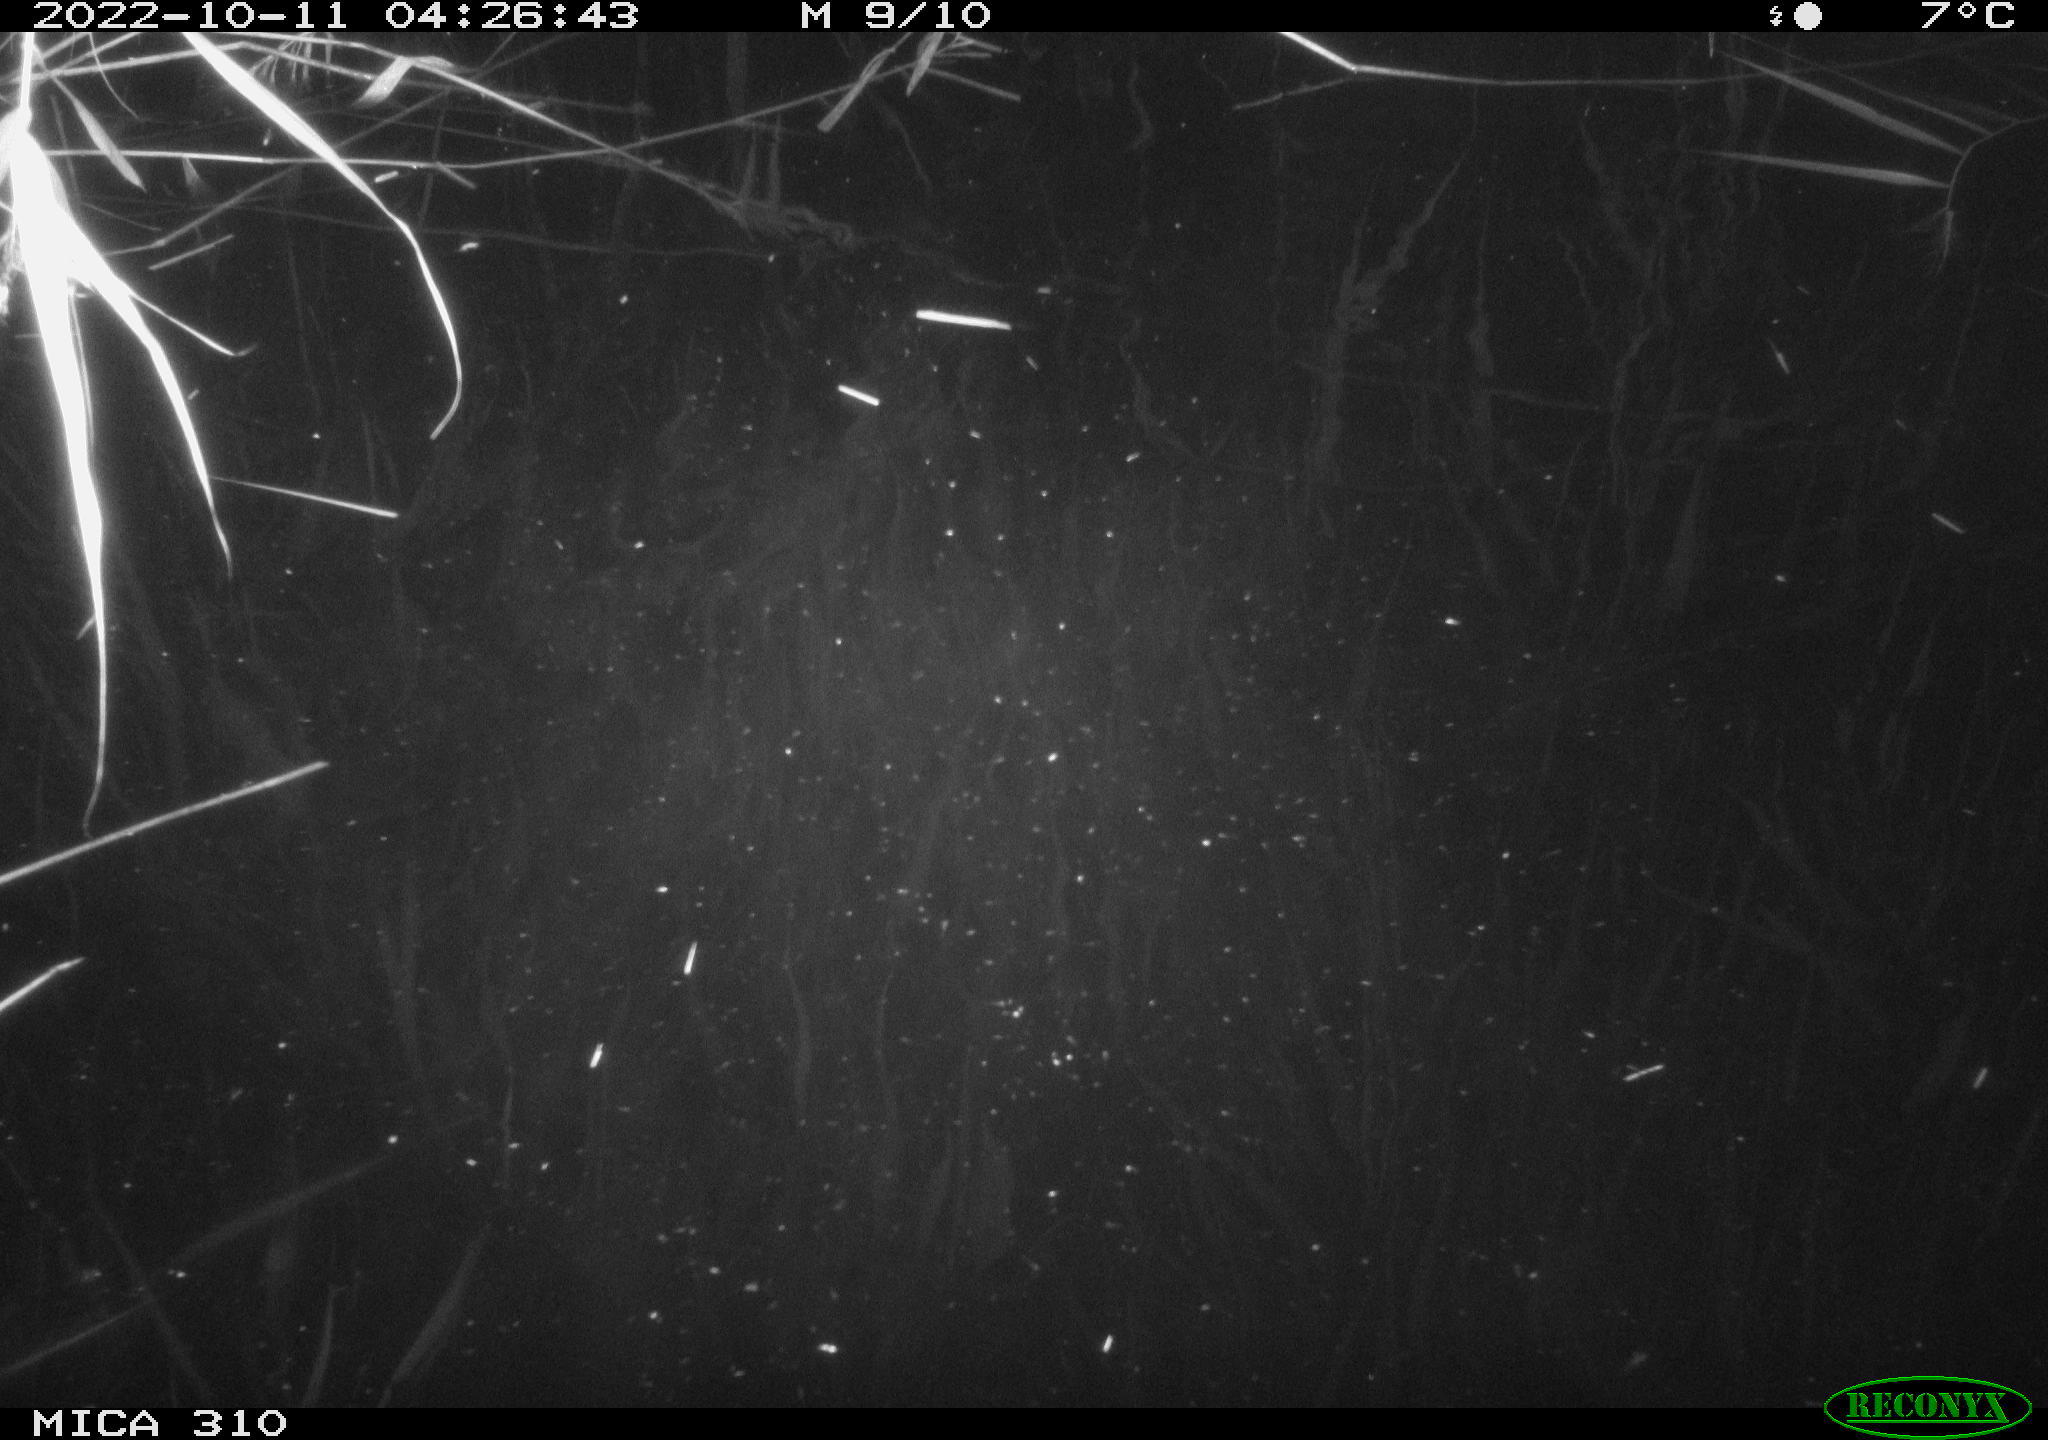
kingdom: Animalia
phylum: Chordata
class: Mammalia
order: Rodentia
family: Muridae
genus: Rattus
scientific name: Rattus norvegicus
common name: Brown rat
